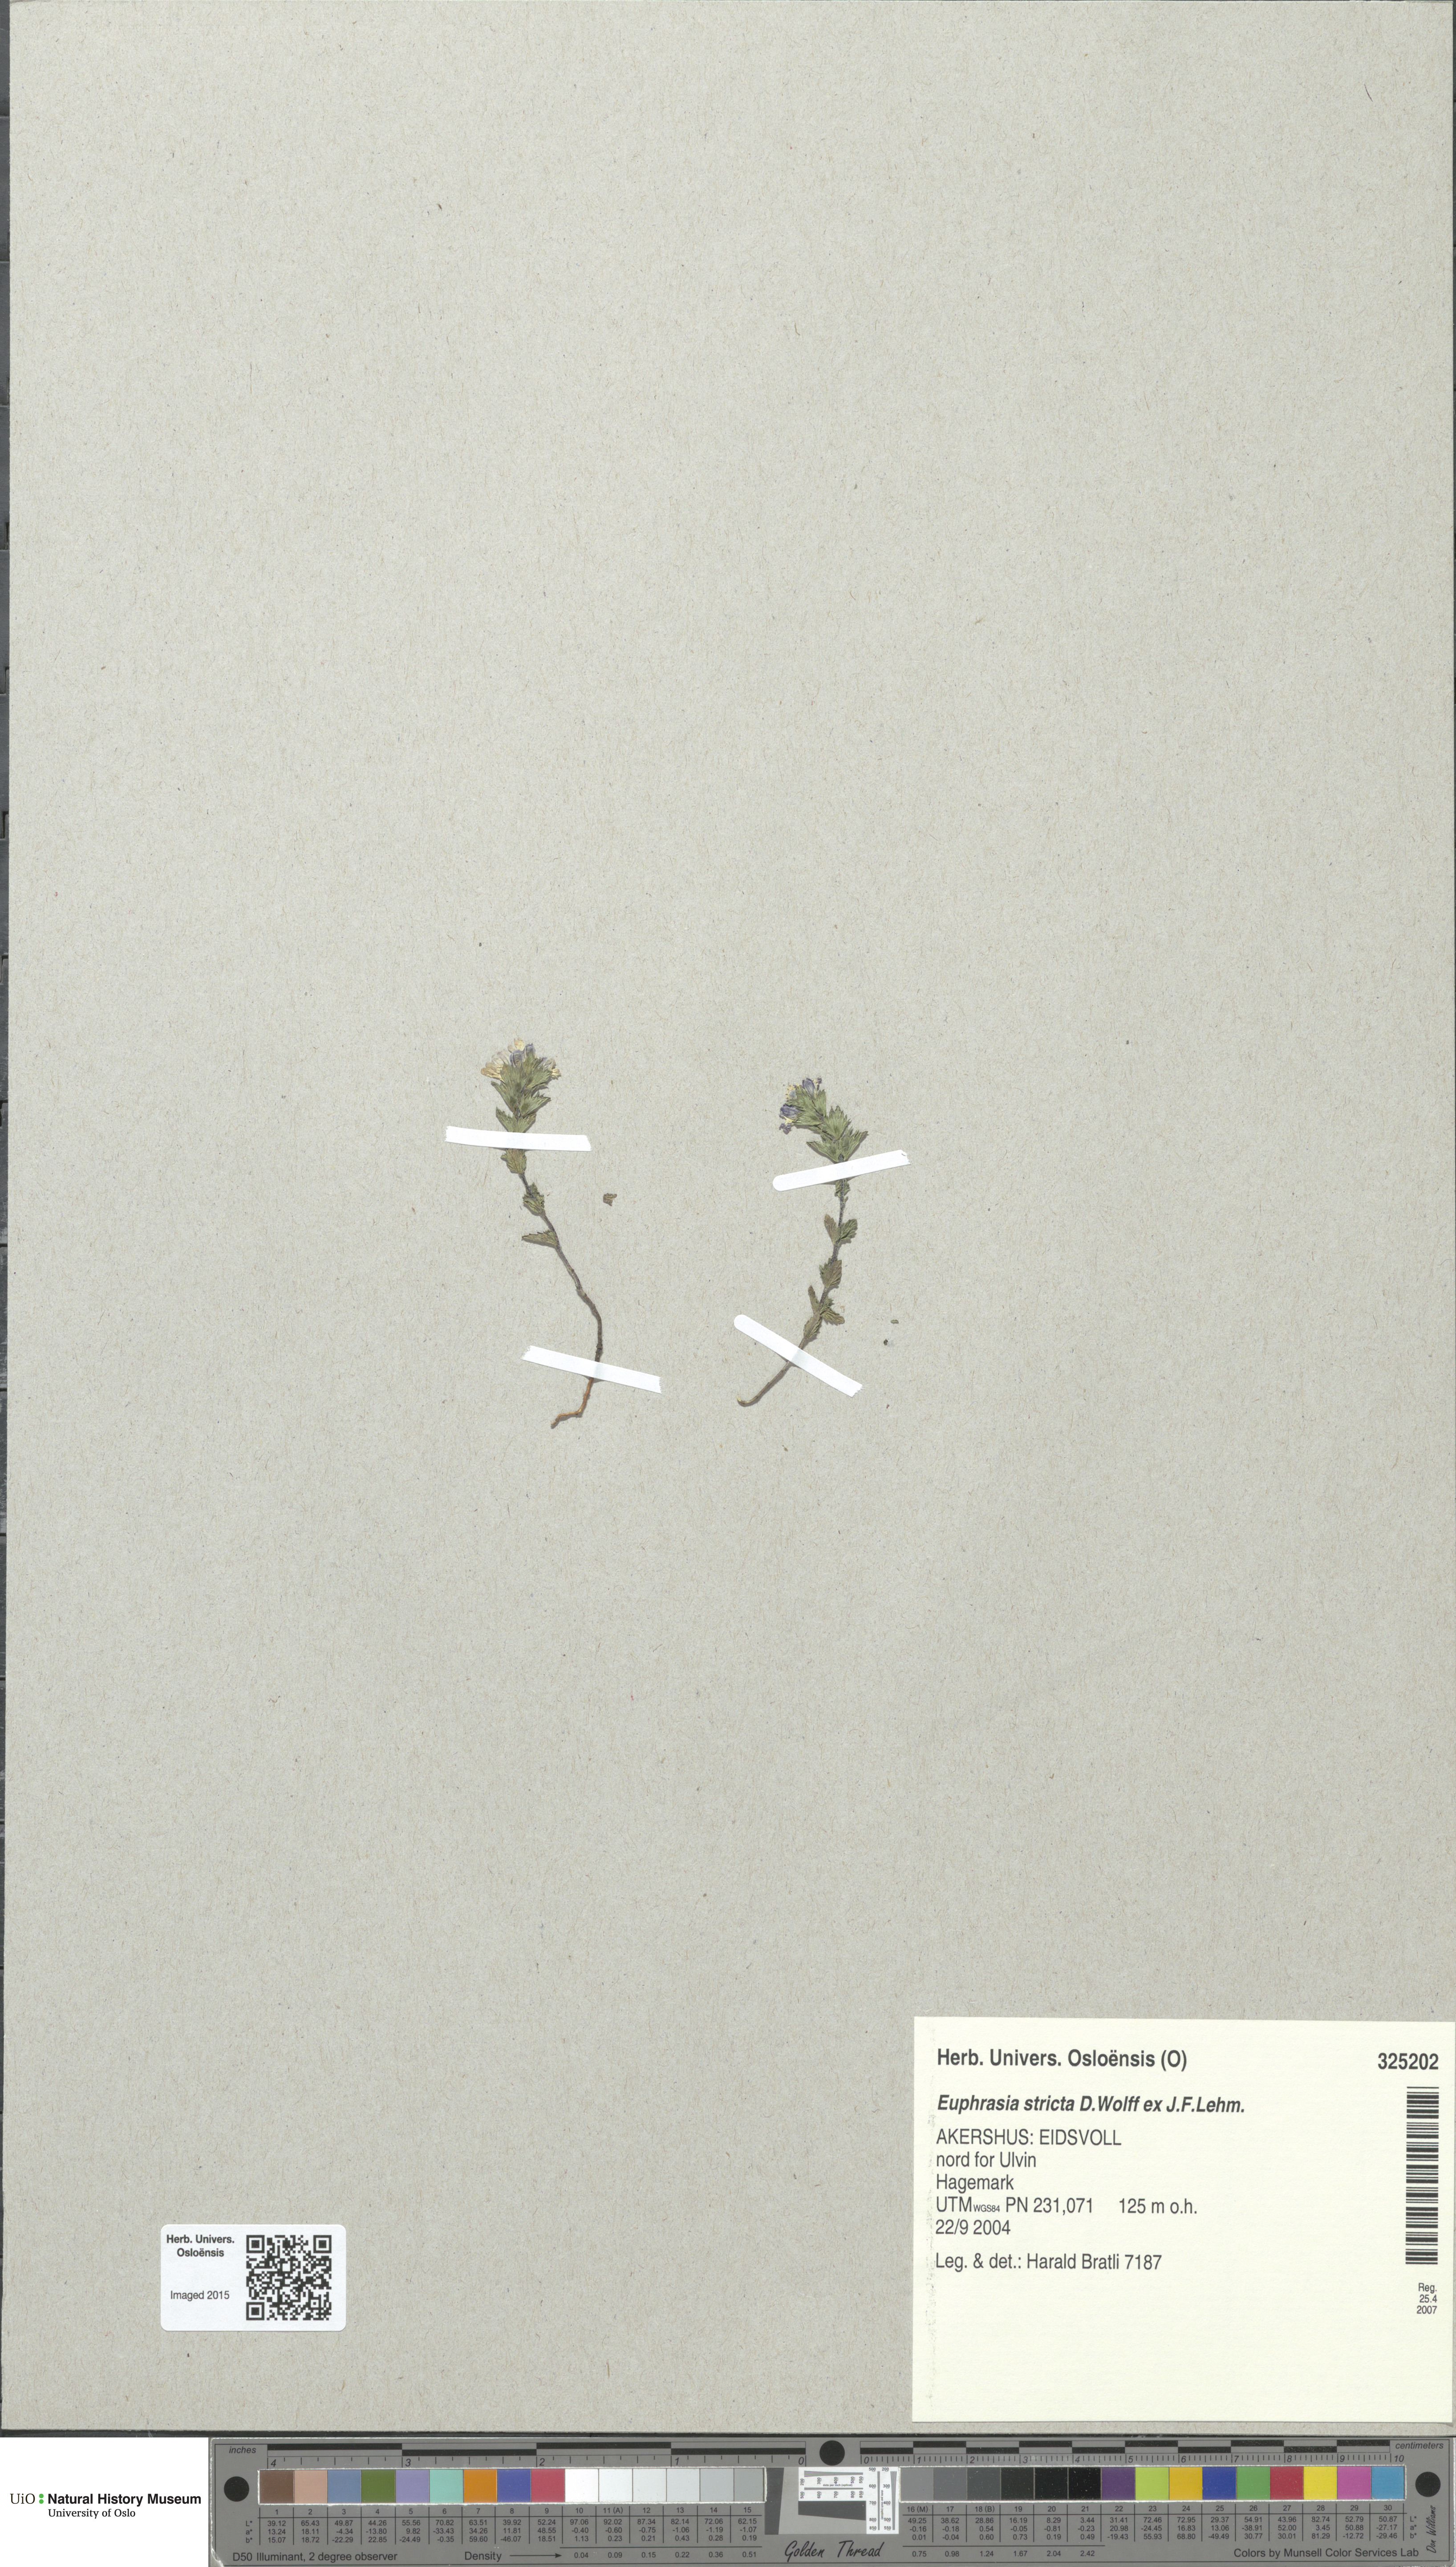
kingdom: Plantae
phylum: Tracheophyta
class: Magnoliopsida
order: Lamiales
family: Orobanchaceae
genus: Euphrasia
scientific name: Euphrasia stricta
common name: Drug eyebright
